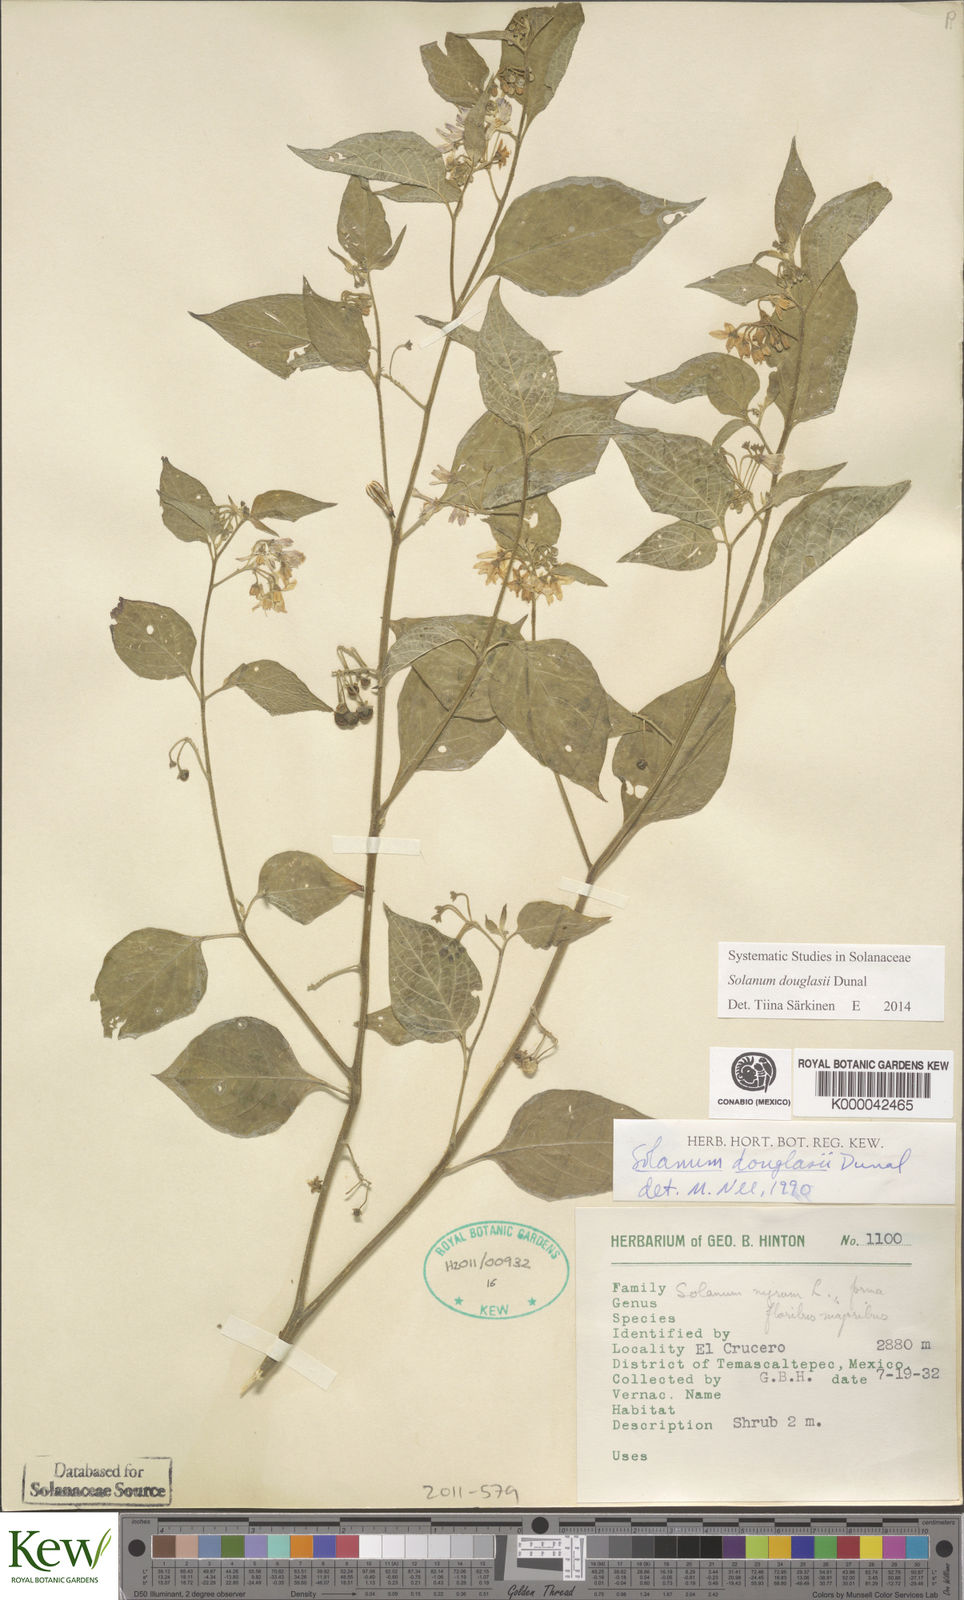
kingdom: Plantae
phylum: Tracheophyta
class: Magnoliopsida
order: Solanales
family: Solanaceae
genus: Solanum
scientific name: Solanum douglasii
